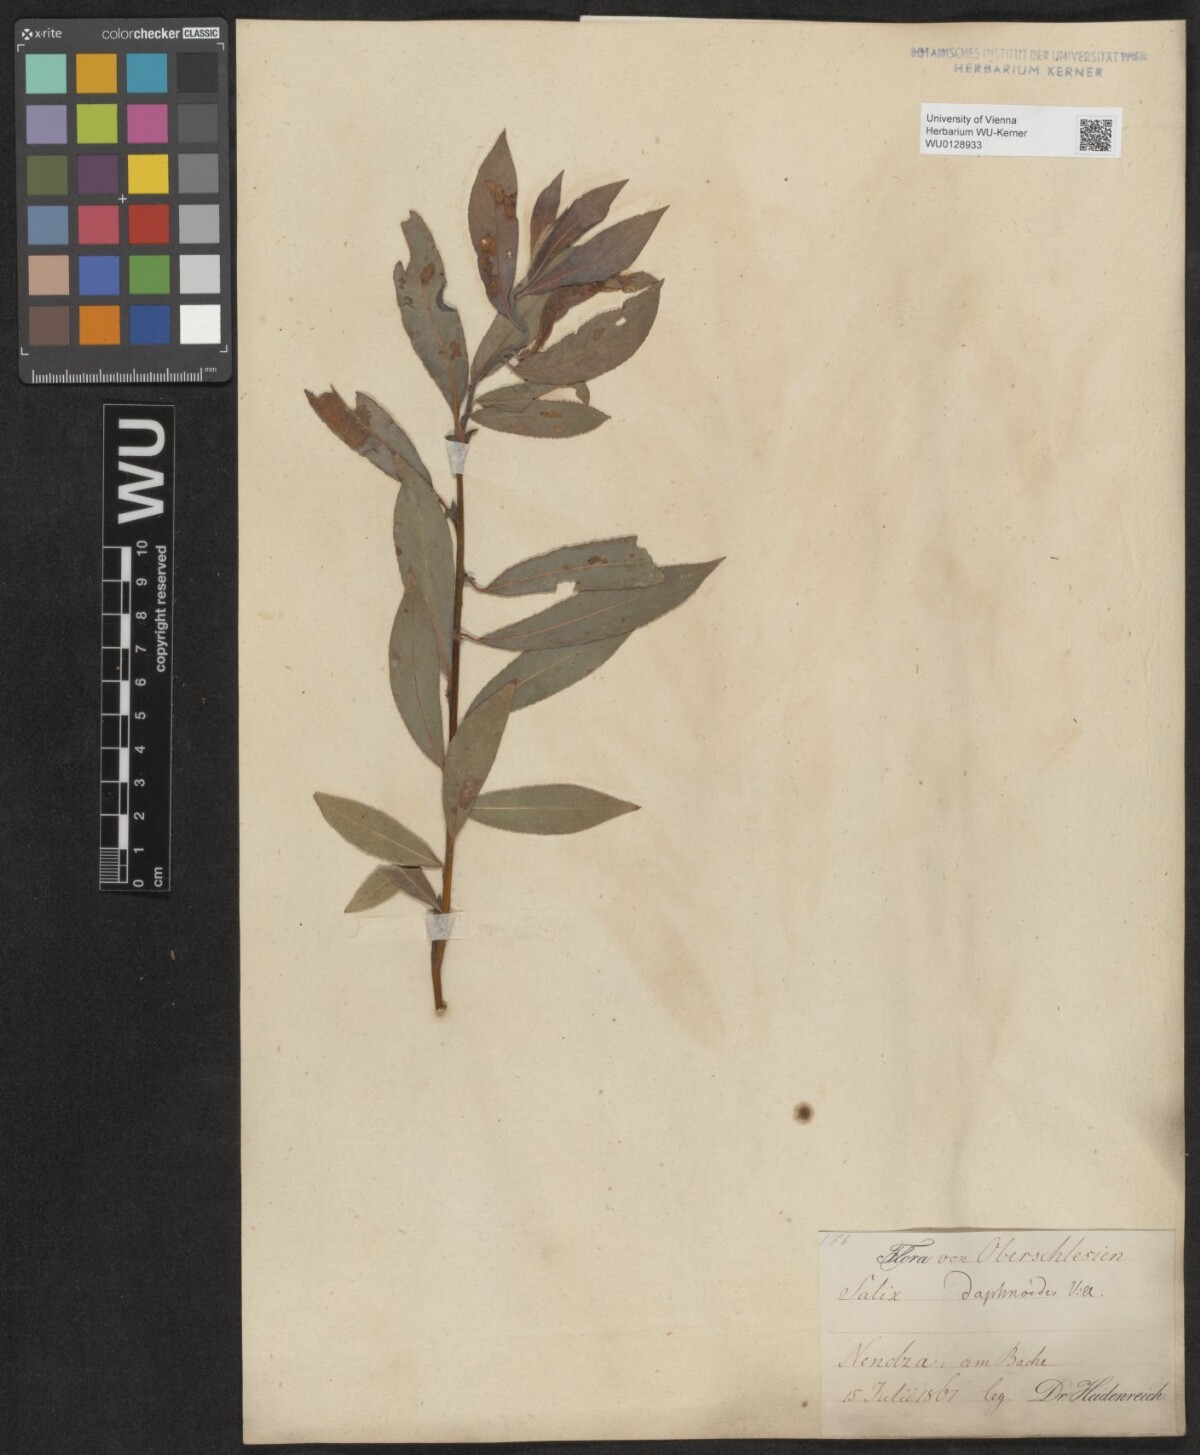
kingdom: Plantae
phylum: Tracheophyta
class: Magnoliopsida
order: Malpighiales
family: Salicaceae
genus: Salix
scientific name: Salix daphnoides
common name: European violet-willow
